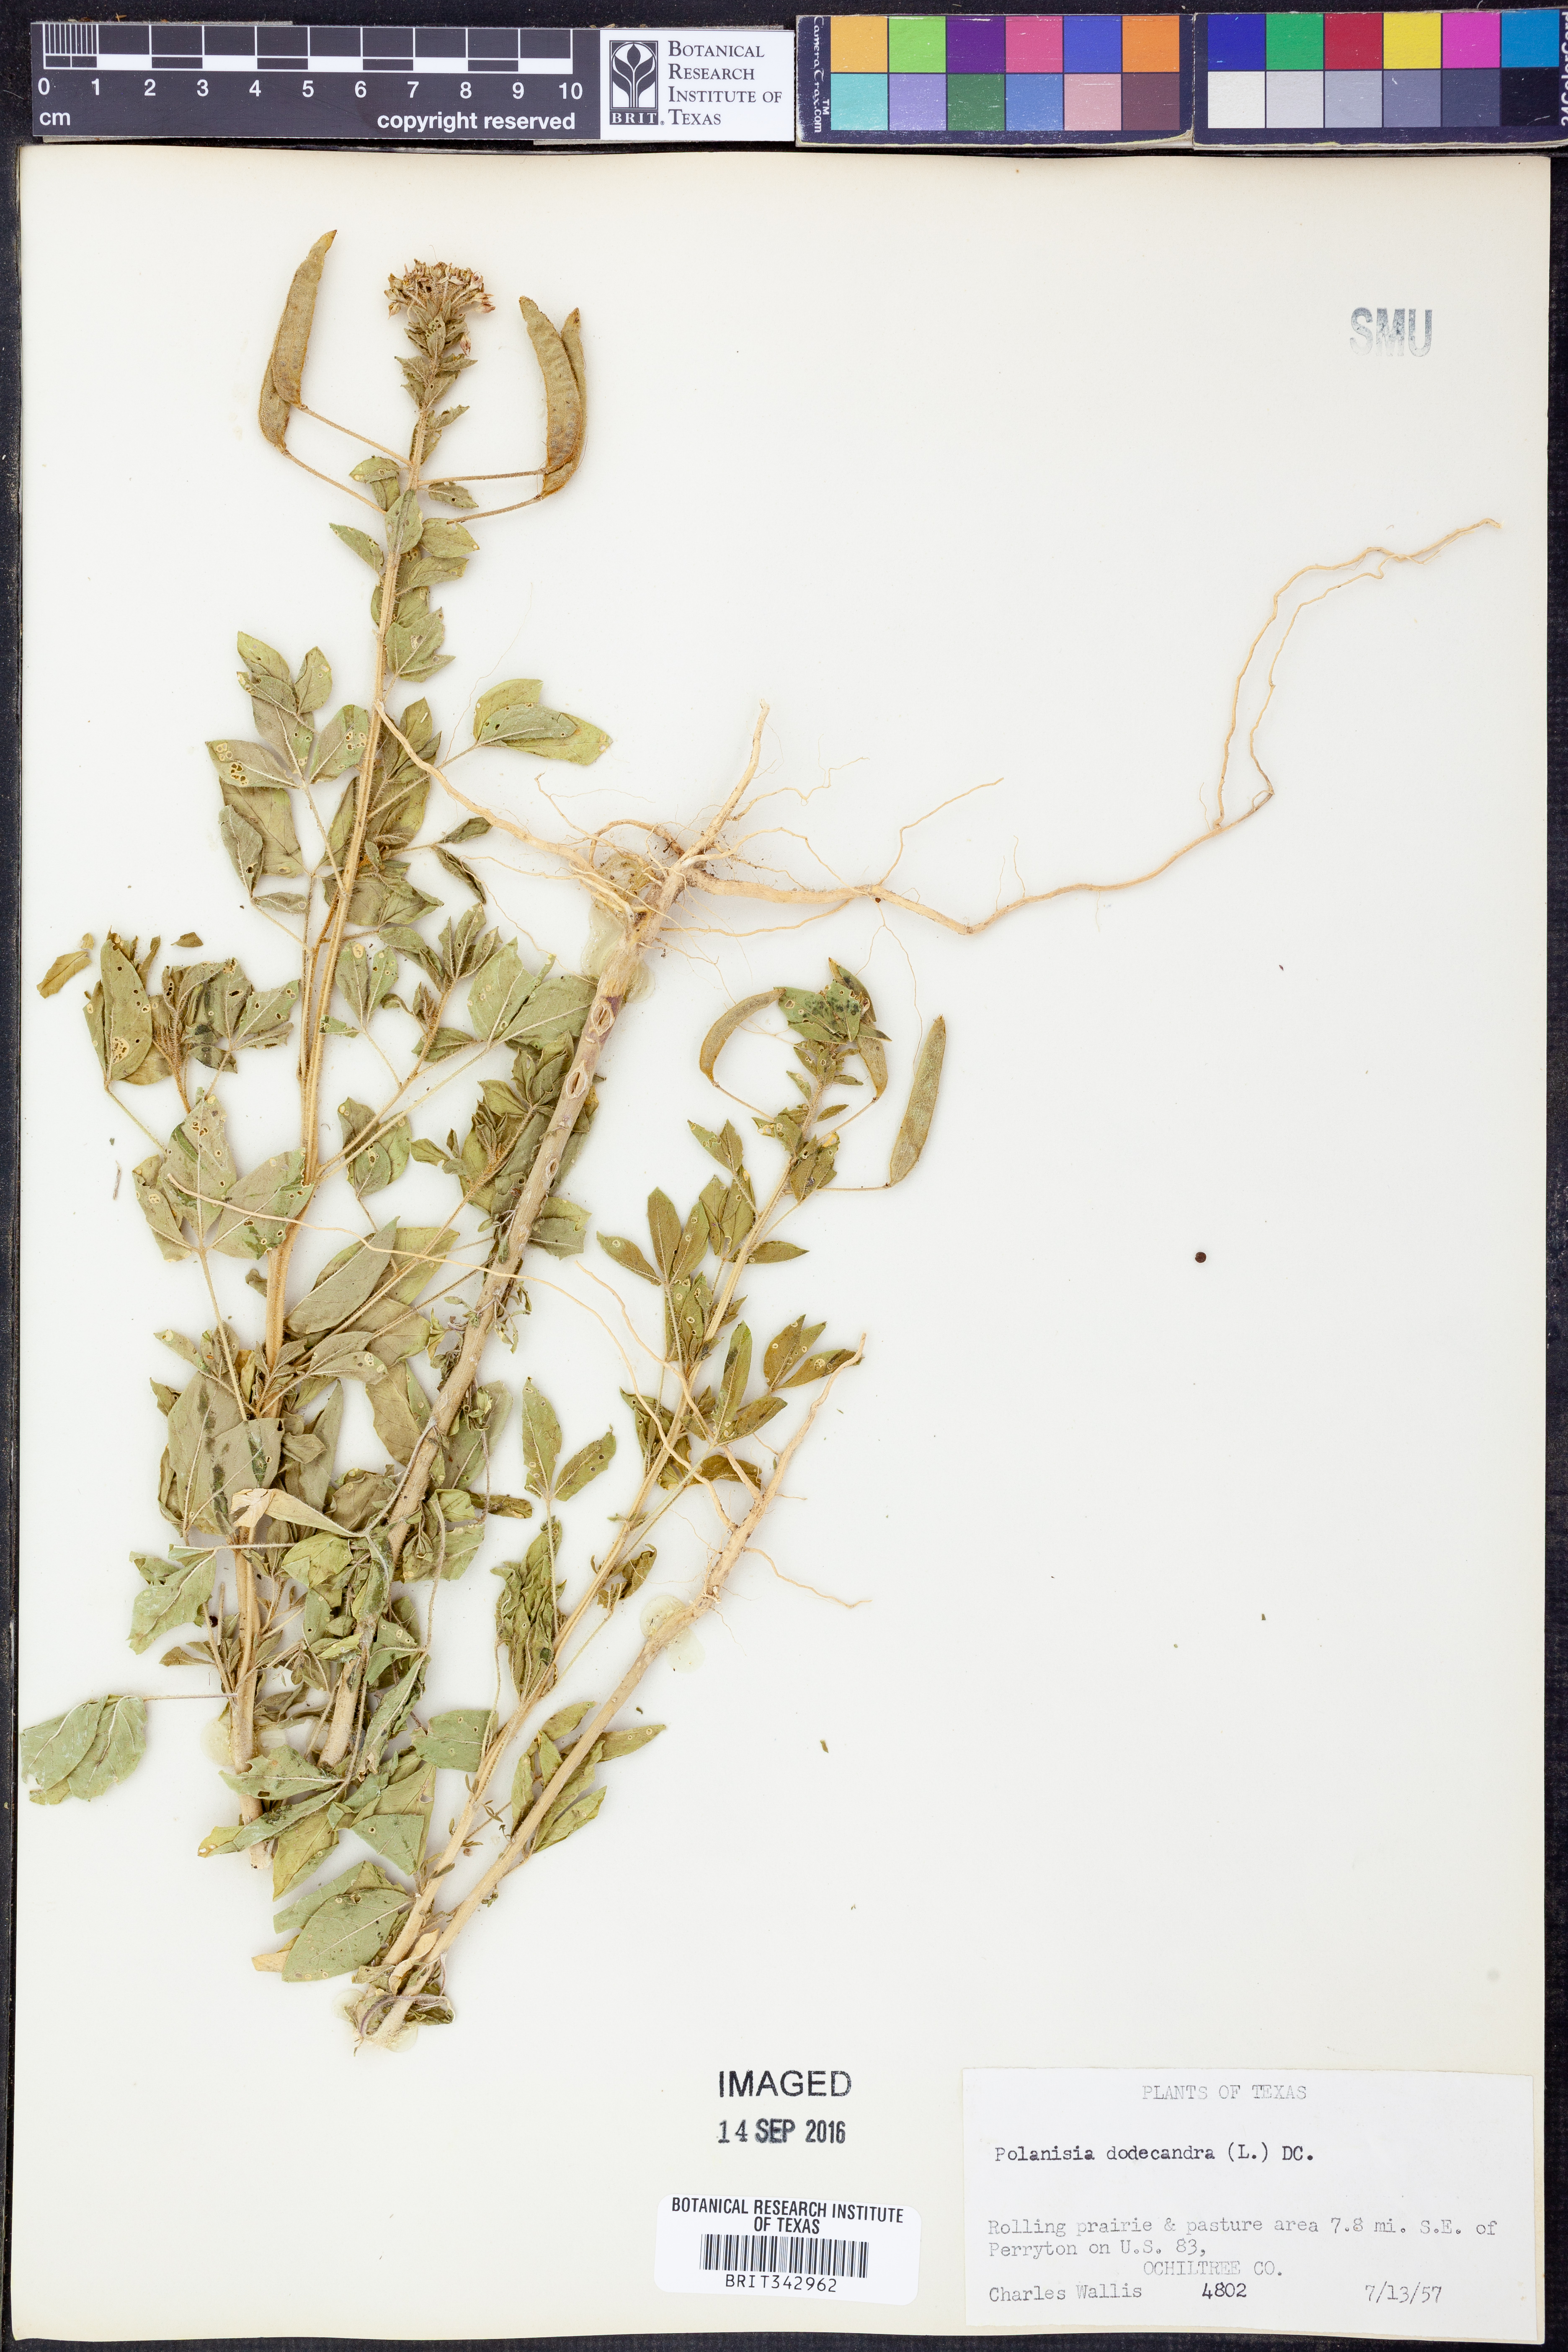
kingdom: Plantae
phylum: Tracheophyta
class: Magnoliopsida
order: Brassicales
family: Cleomaceae
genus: Polanisia
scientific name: Polanisia dodecandra
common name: Clammyweed
